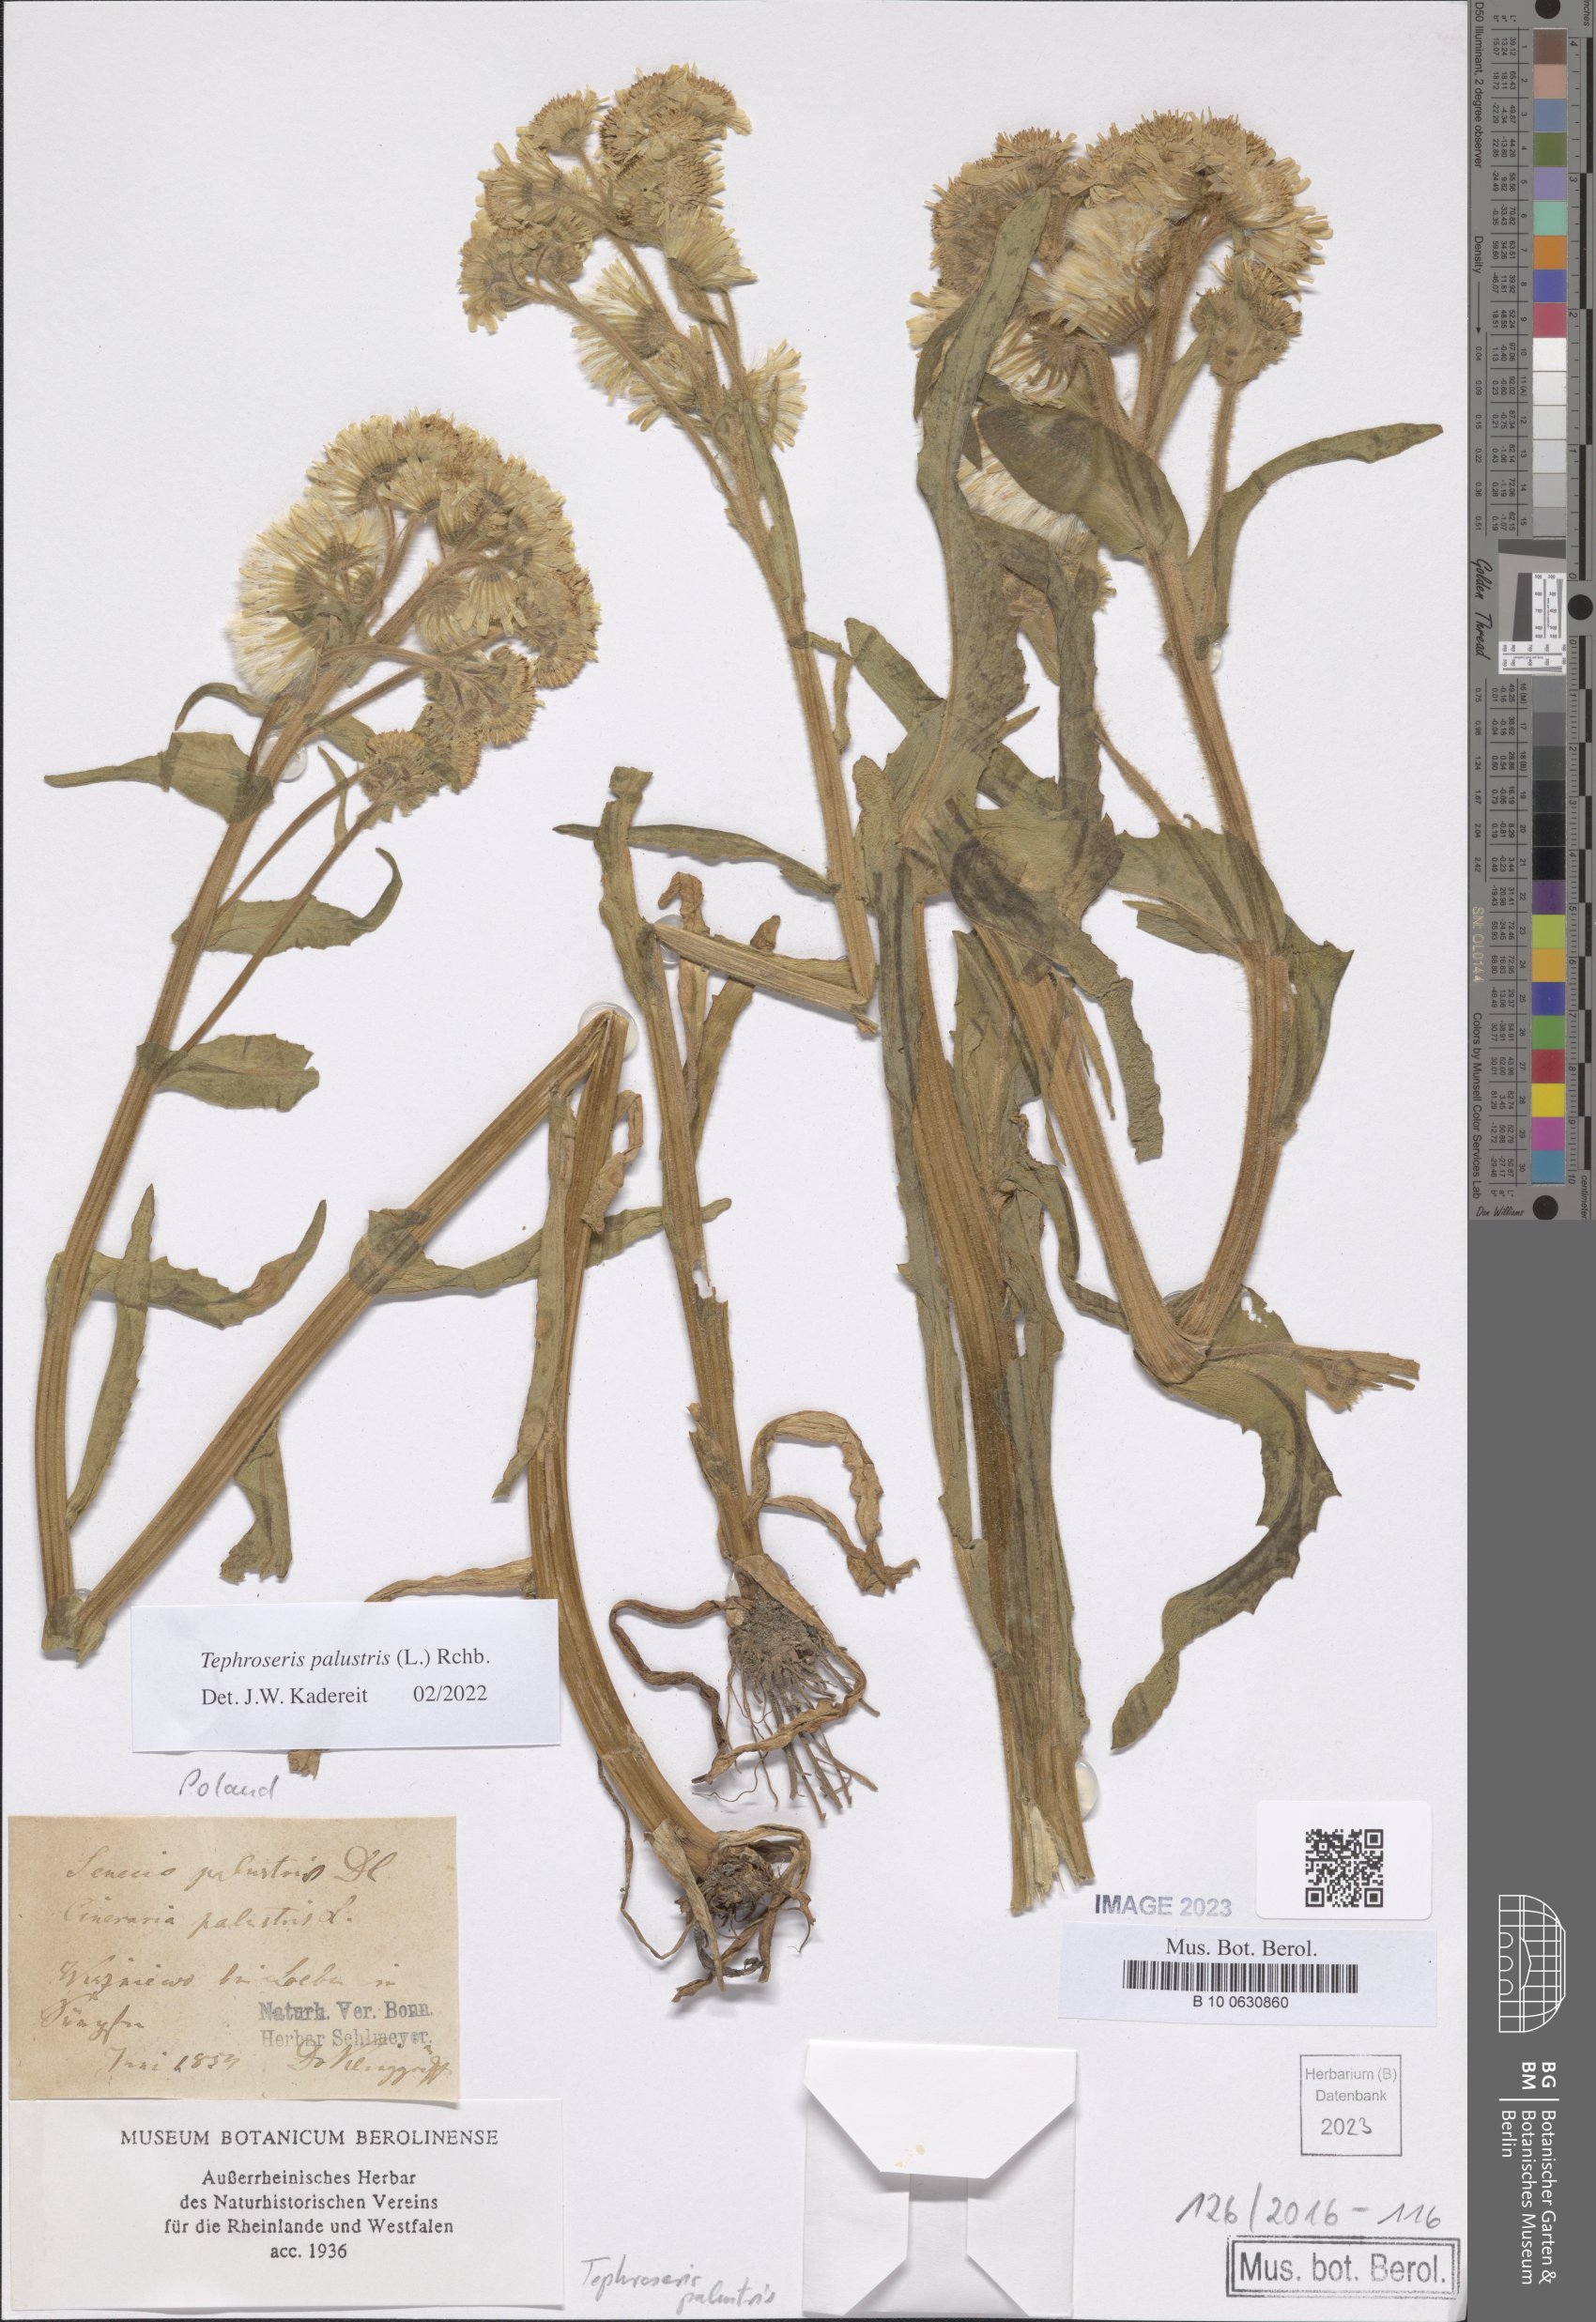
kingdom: Plantae
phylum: Tracheophyta
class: Magnoliopsida
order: Asterales
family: Asteraceae
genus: Tephroseris
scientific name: Tephroseris palustris
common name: Marsh fleawort
